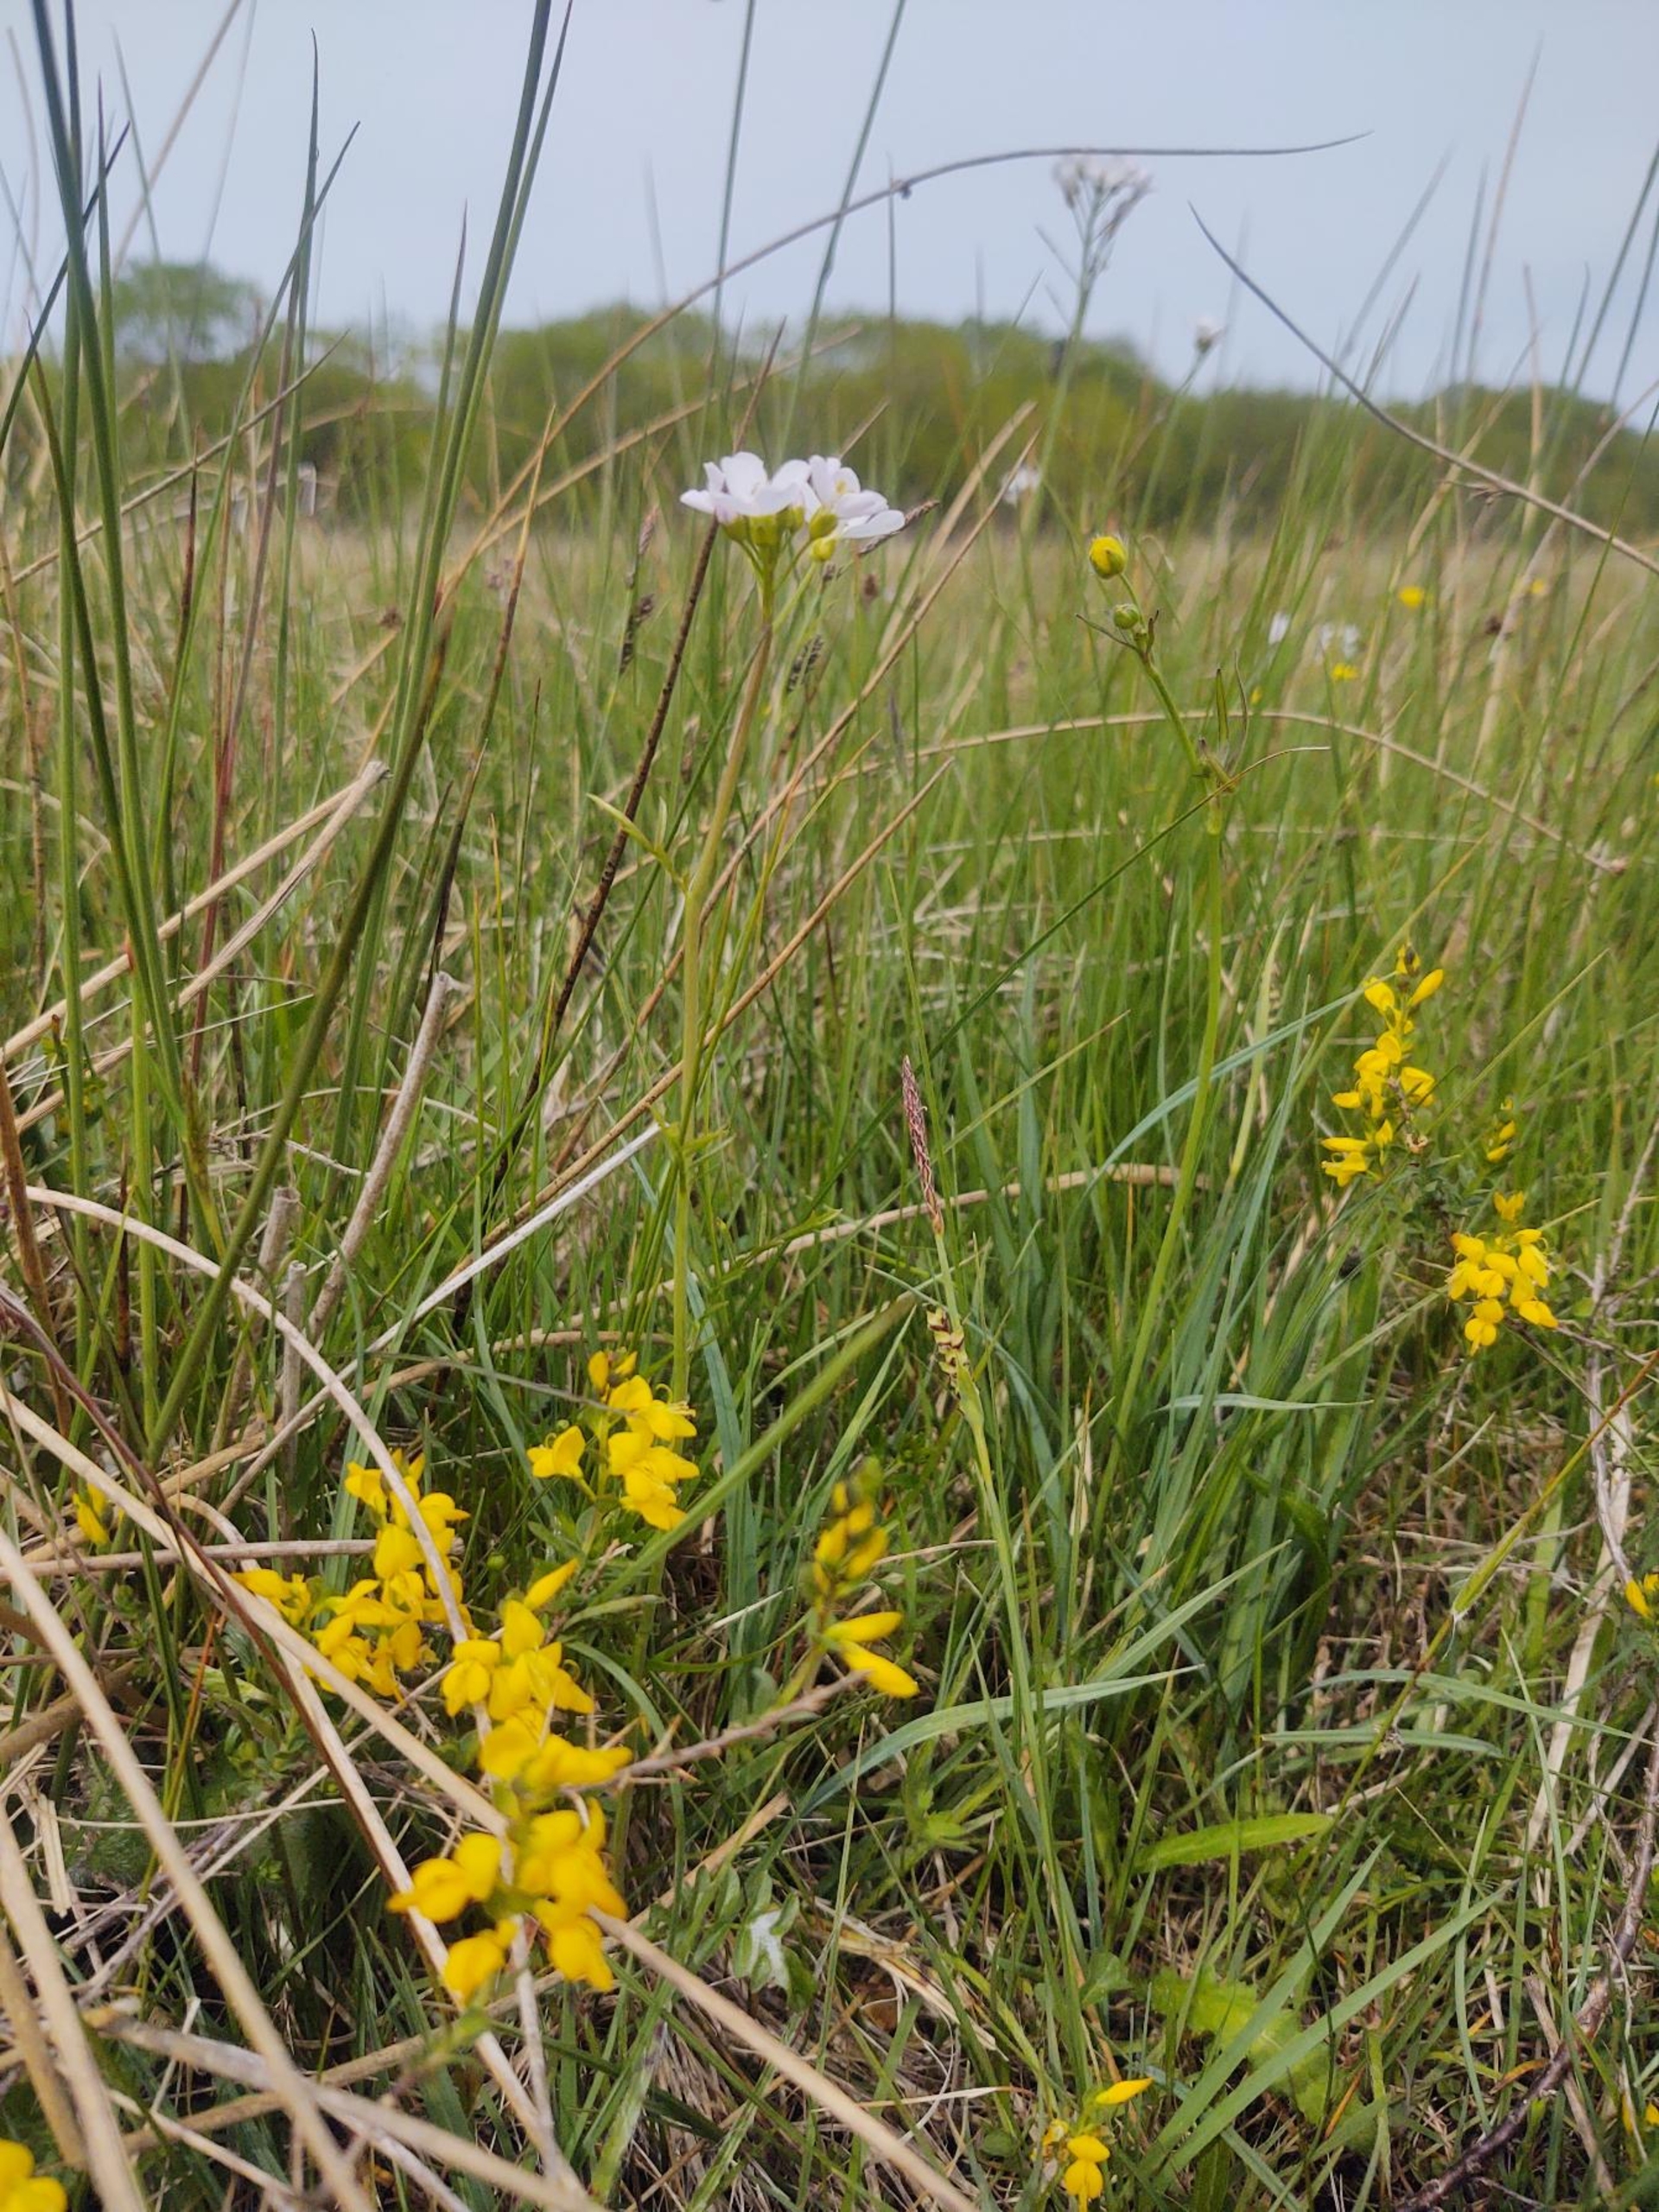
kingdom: Plantae
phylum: Tracheophyta
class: Magnoliopsida
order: Fabales
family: Fabaceae
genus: Genista
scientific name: Genista anglica
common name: Engelsk visse
